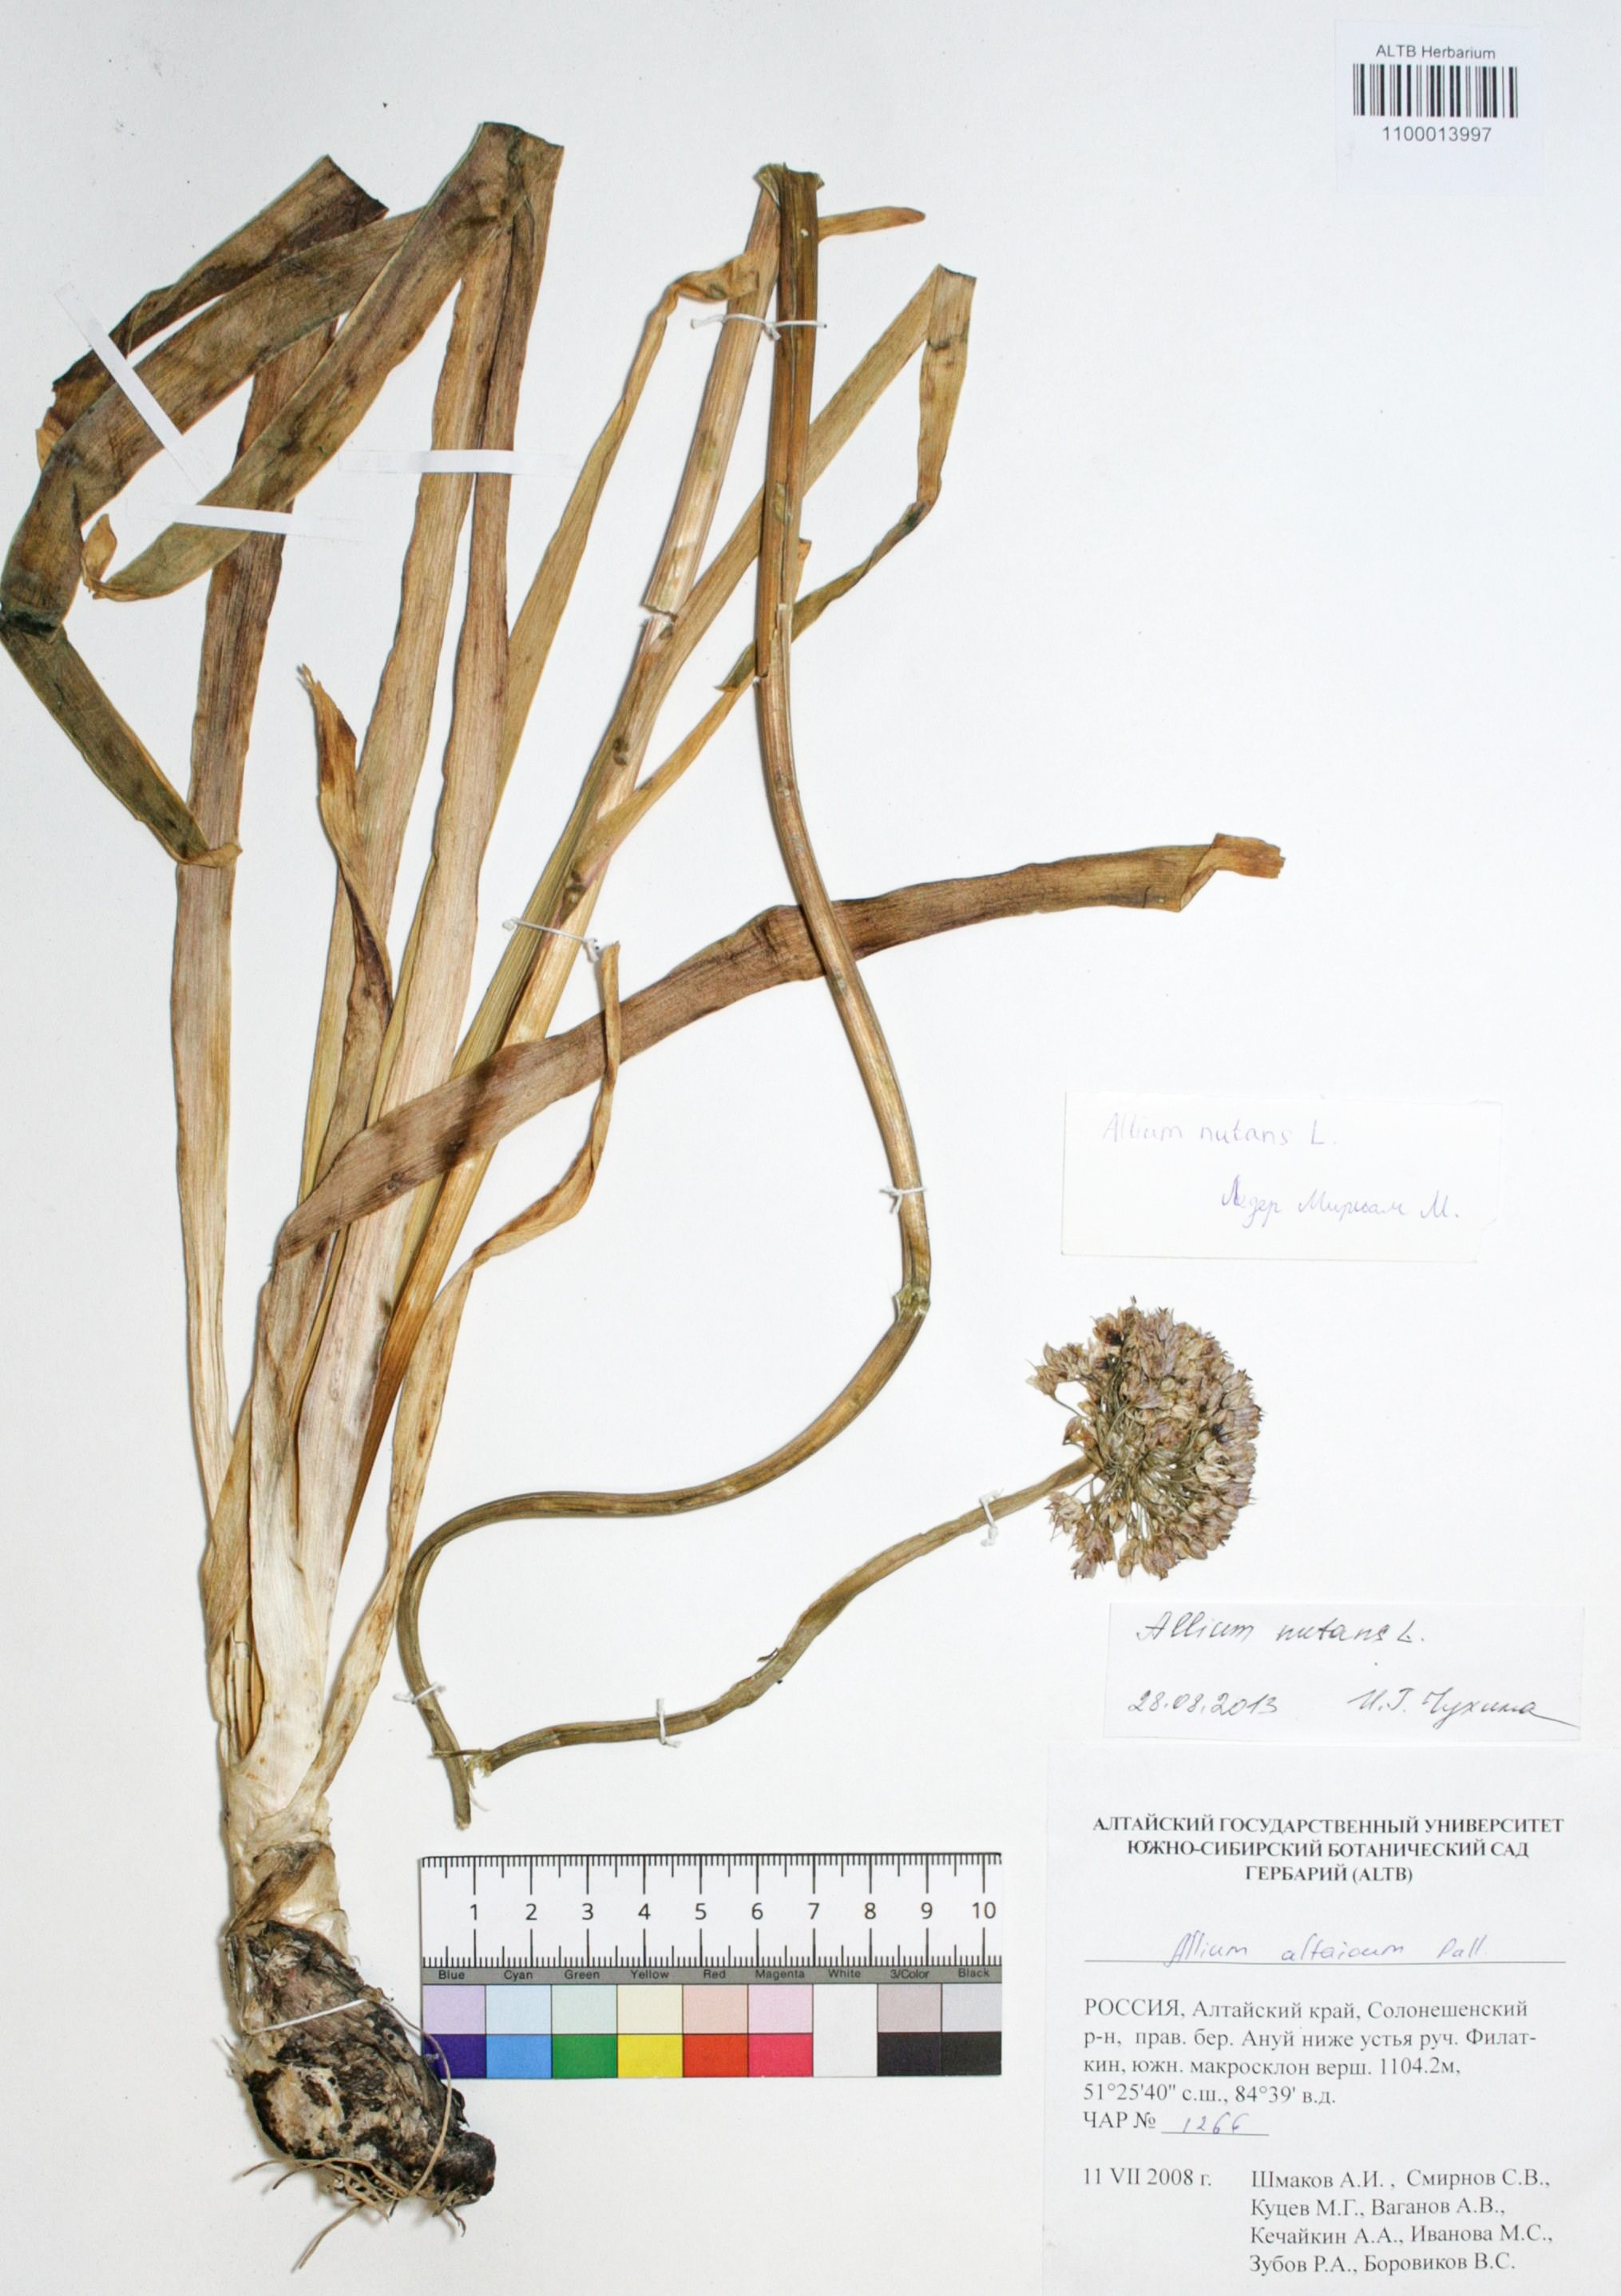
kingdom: Plantae
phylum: Tracheophyta
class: Liliopsida
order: Asparagales
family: Amaryllidaceae
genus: Allium
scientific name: Allium nutans
